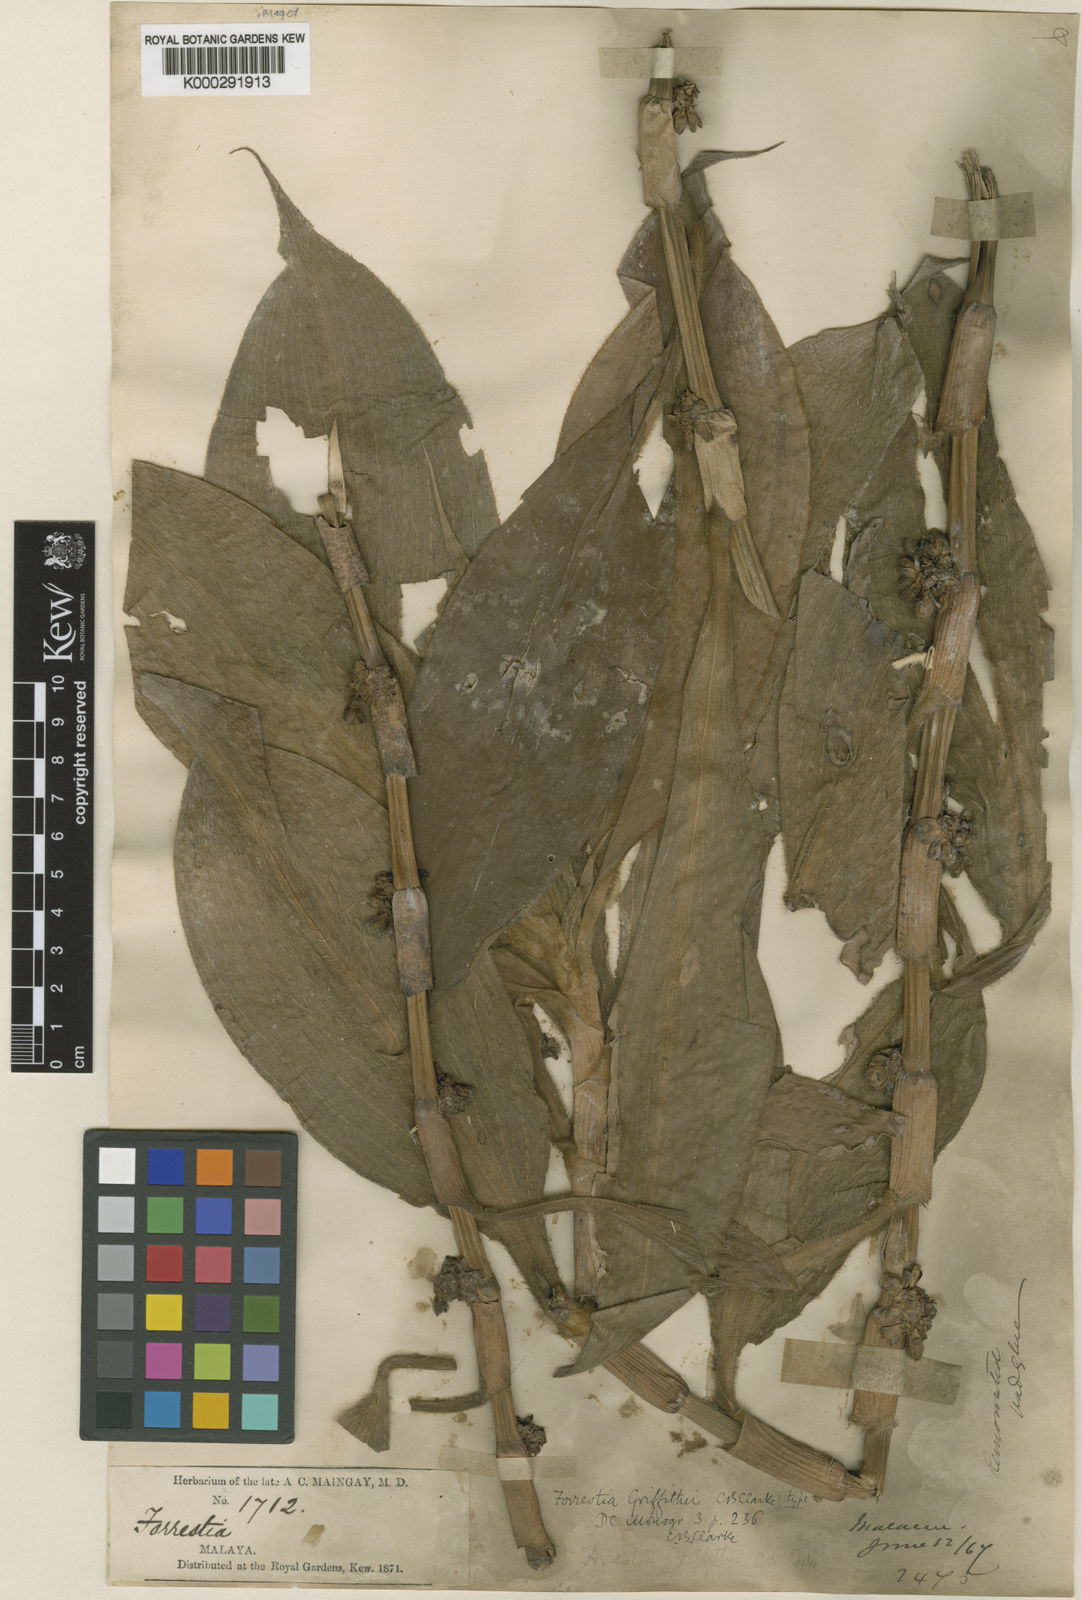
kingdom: Plantae
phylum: Tracheophyta
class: Liliopsida
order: Commelinales
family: Commelinaceae
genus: Amischotolype
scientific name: Amischotolype griffithii
